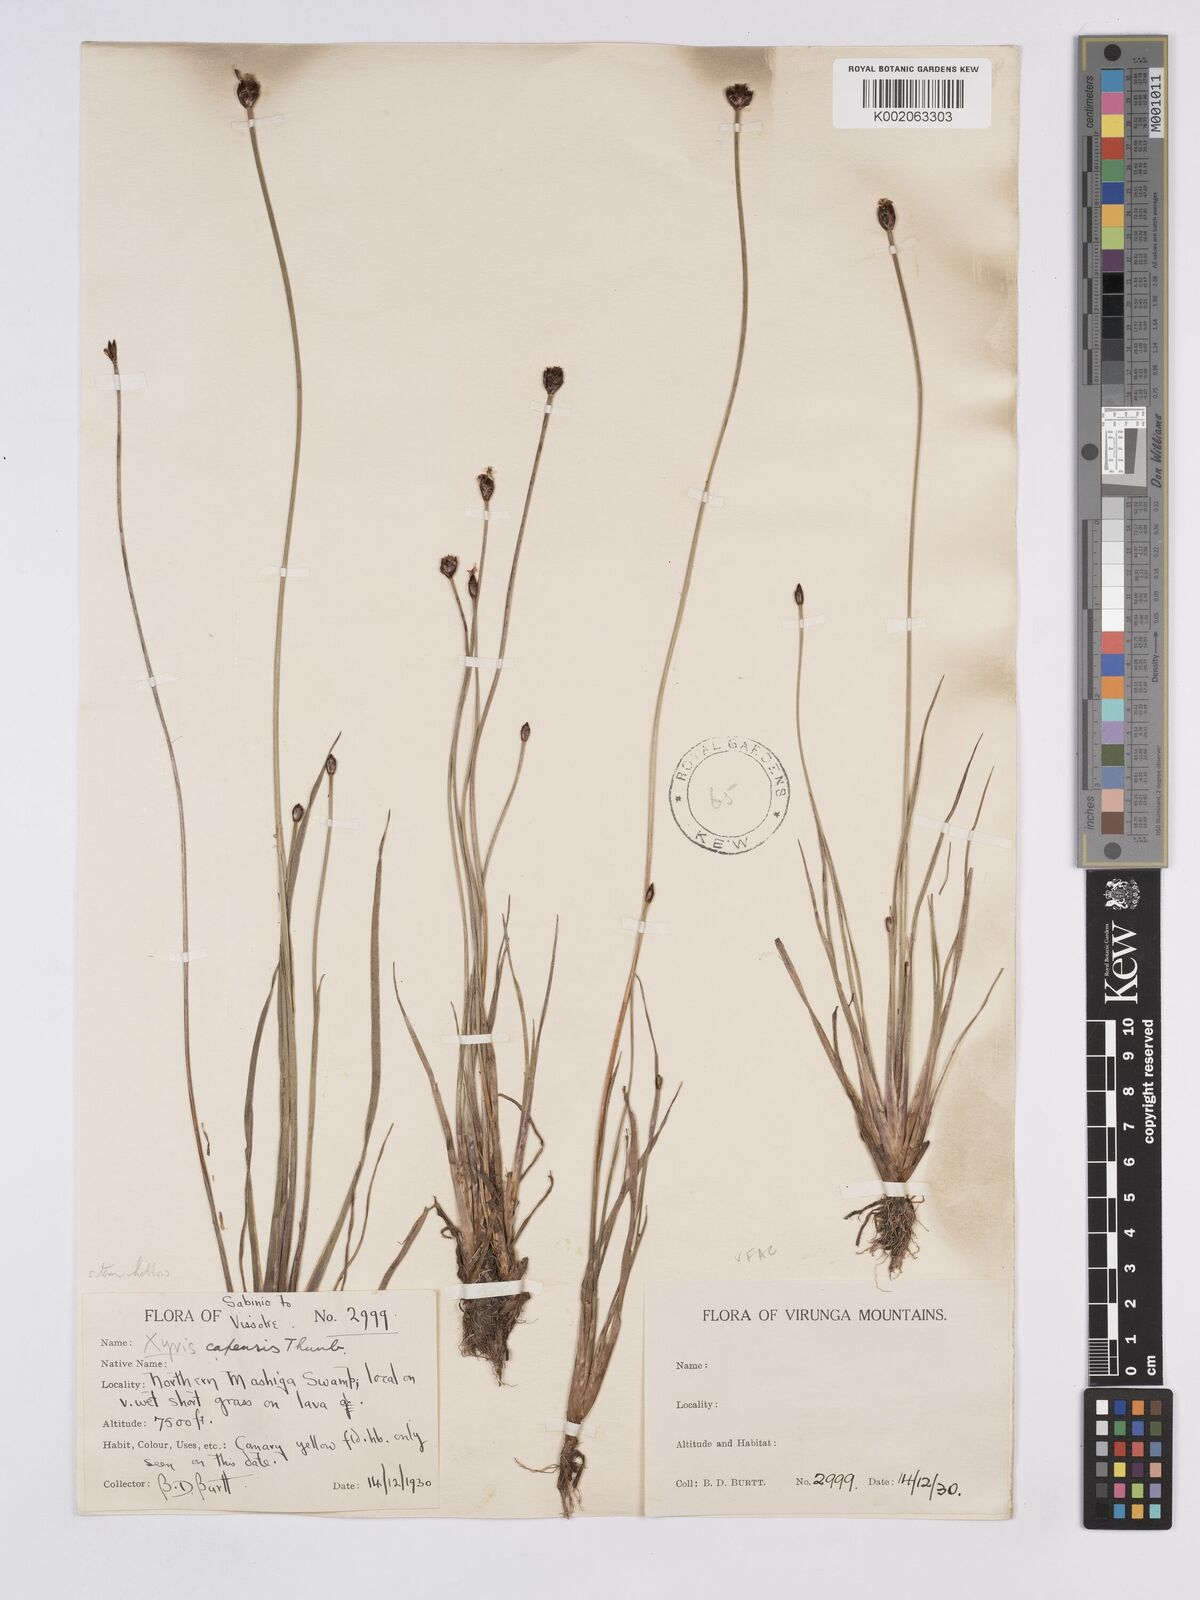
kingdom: Plantae
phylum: Tracheophyta
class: Liliopsida
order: Poales
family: Xyridaceae
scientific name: Xyridaceae
